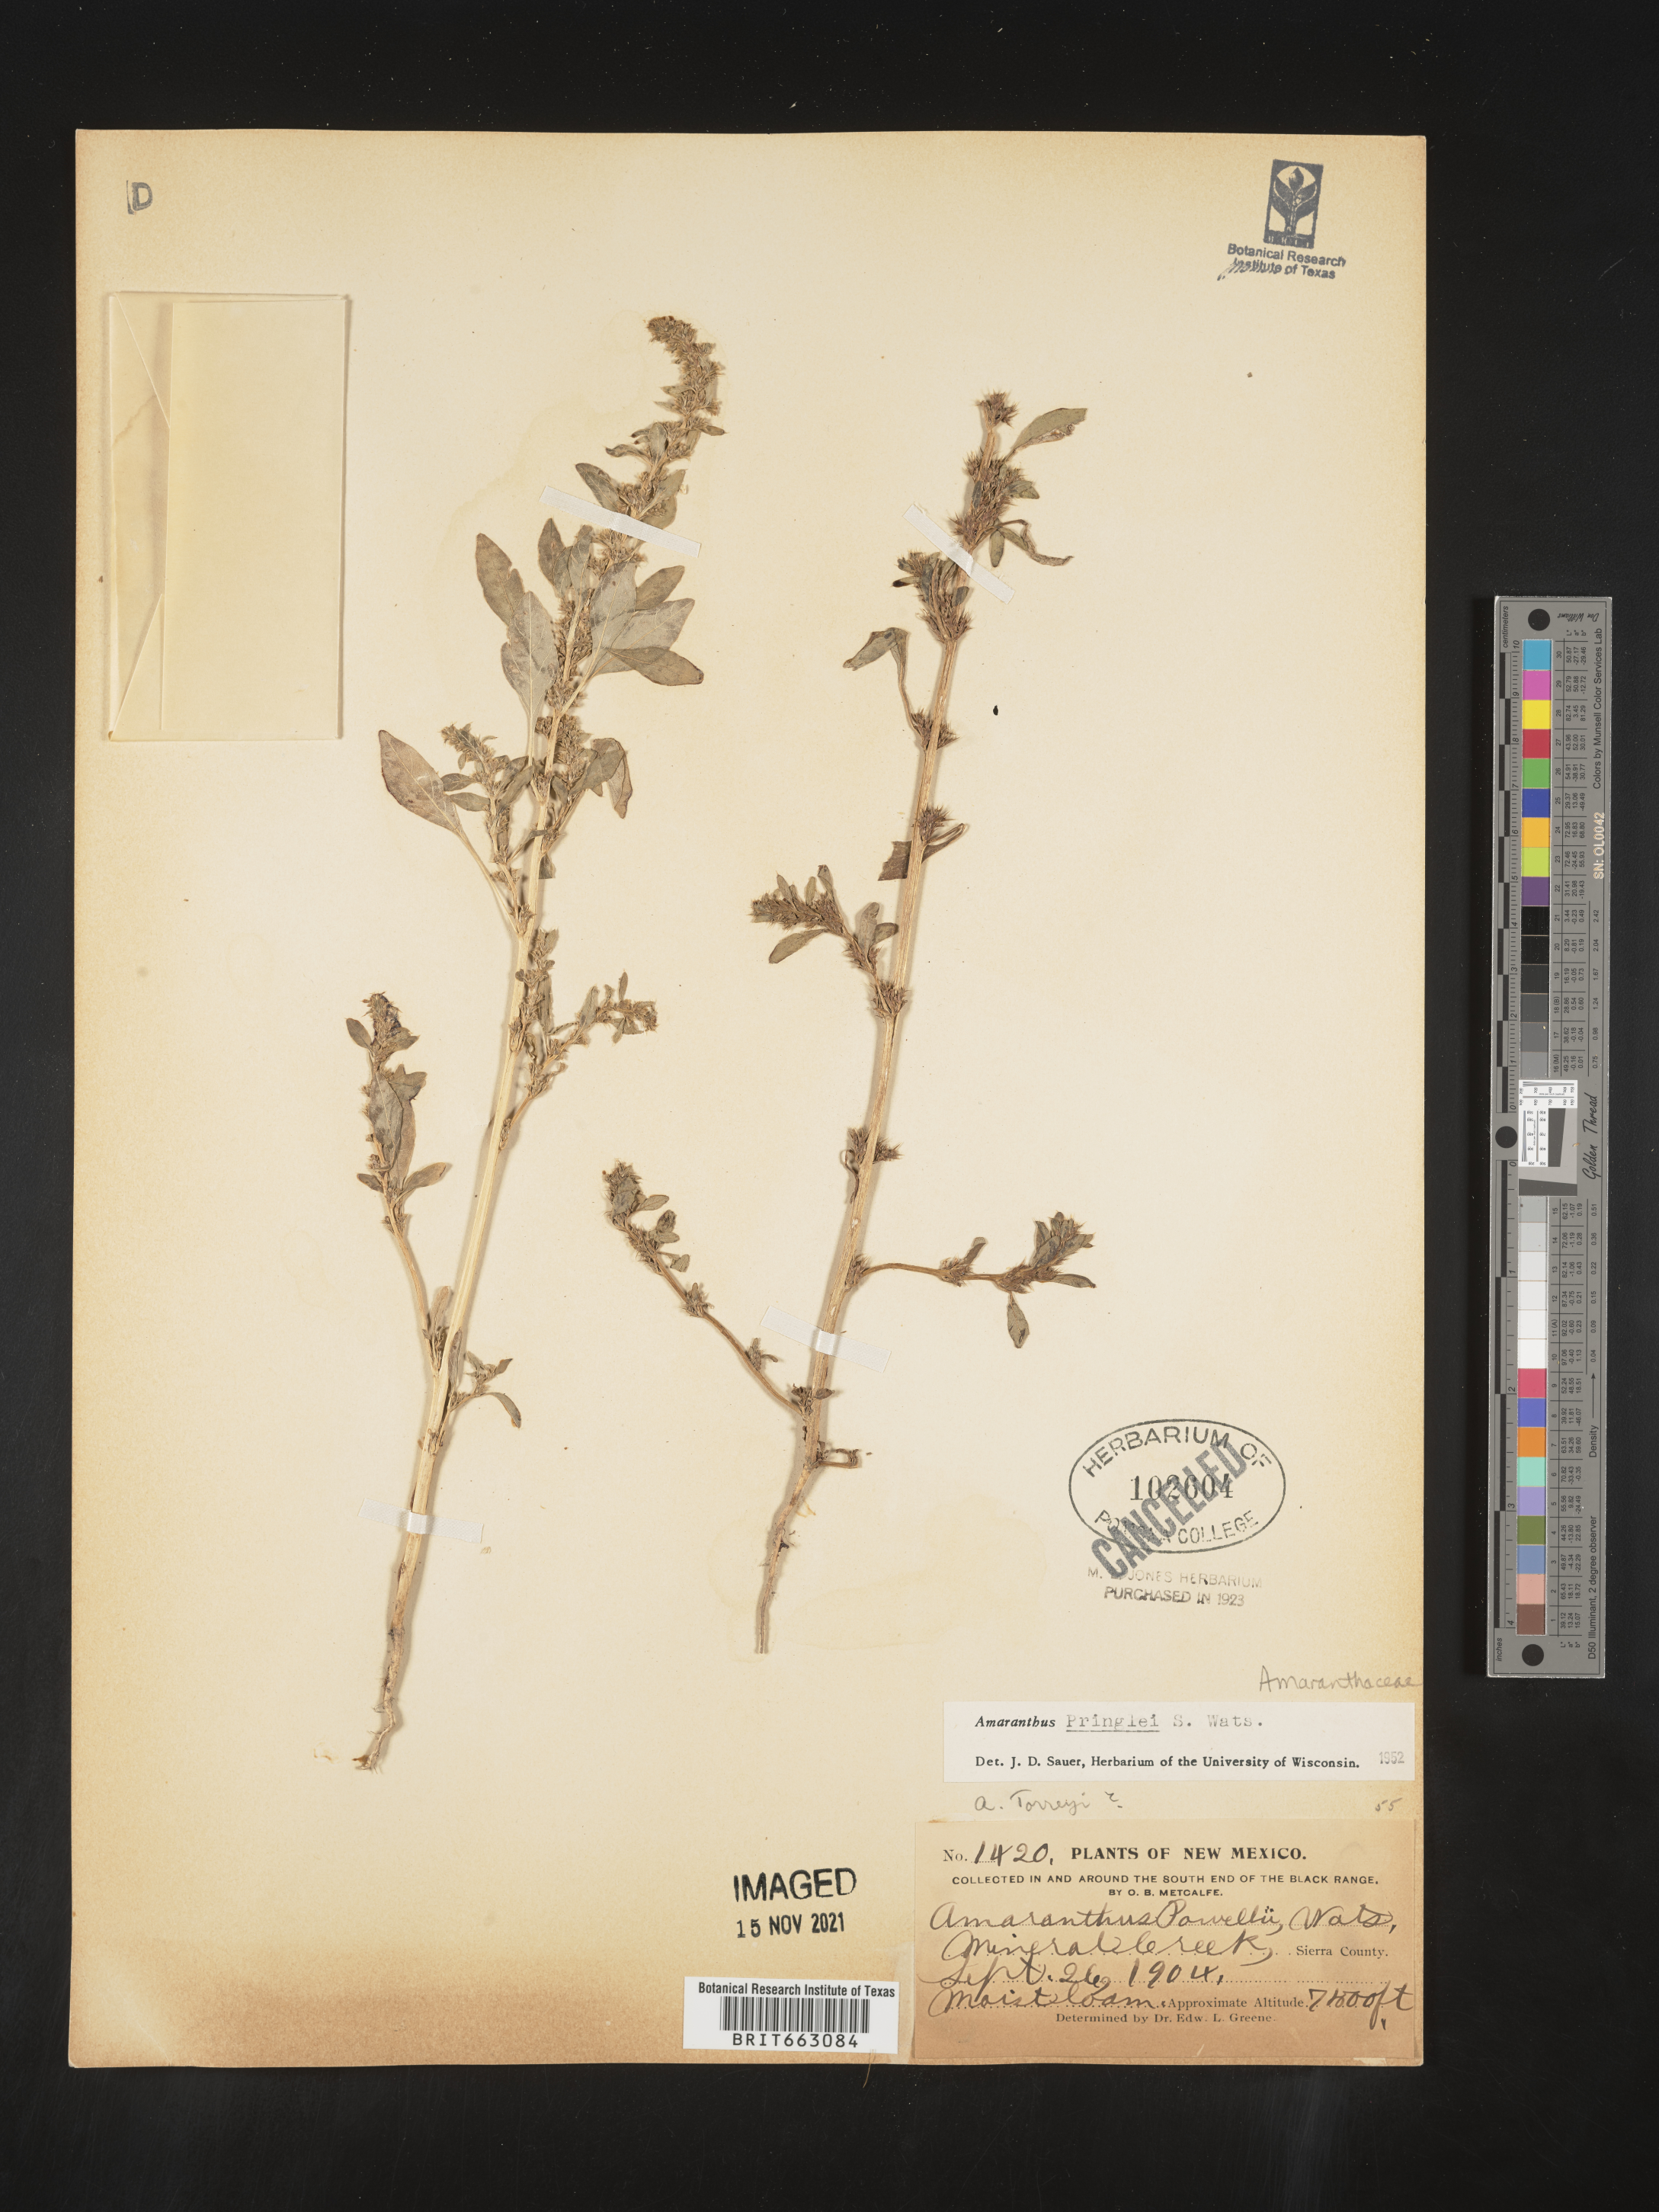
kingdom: Plantae
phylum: Tracheophyta
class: Magnoliopsida
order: Caryophyllales
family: Amaranthaceae
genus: Amaranthus
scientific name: Amaranthus powellii
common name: Powell's amaranth
